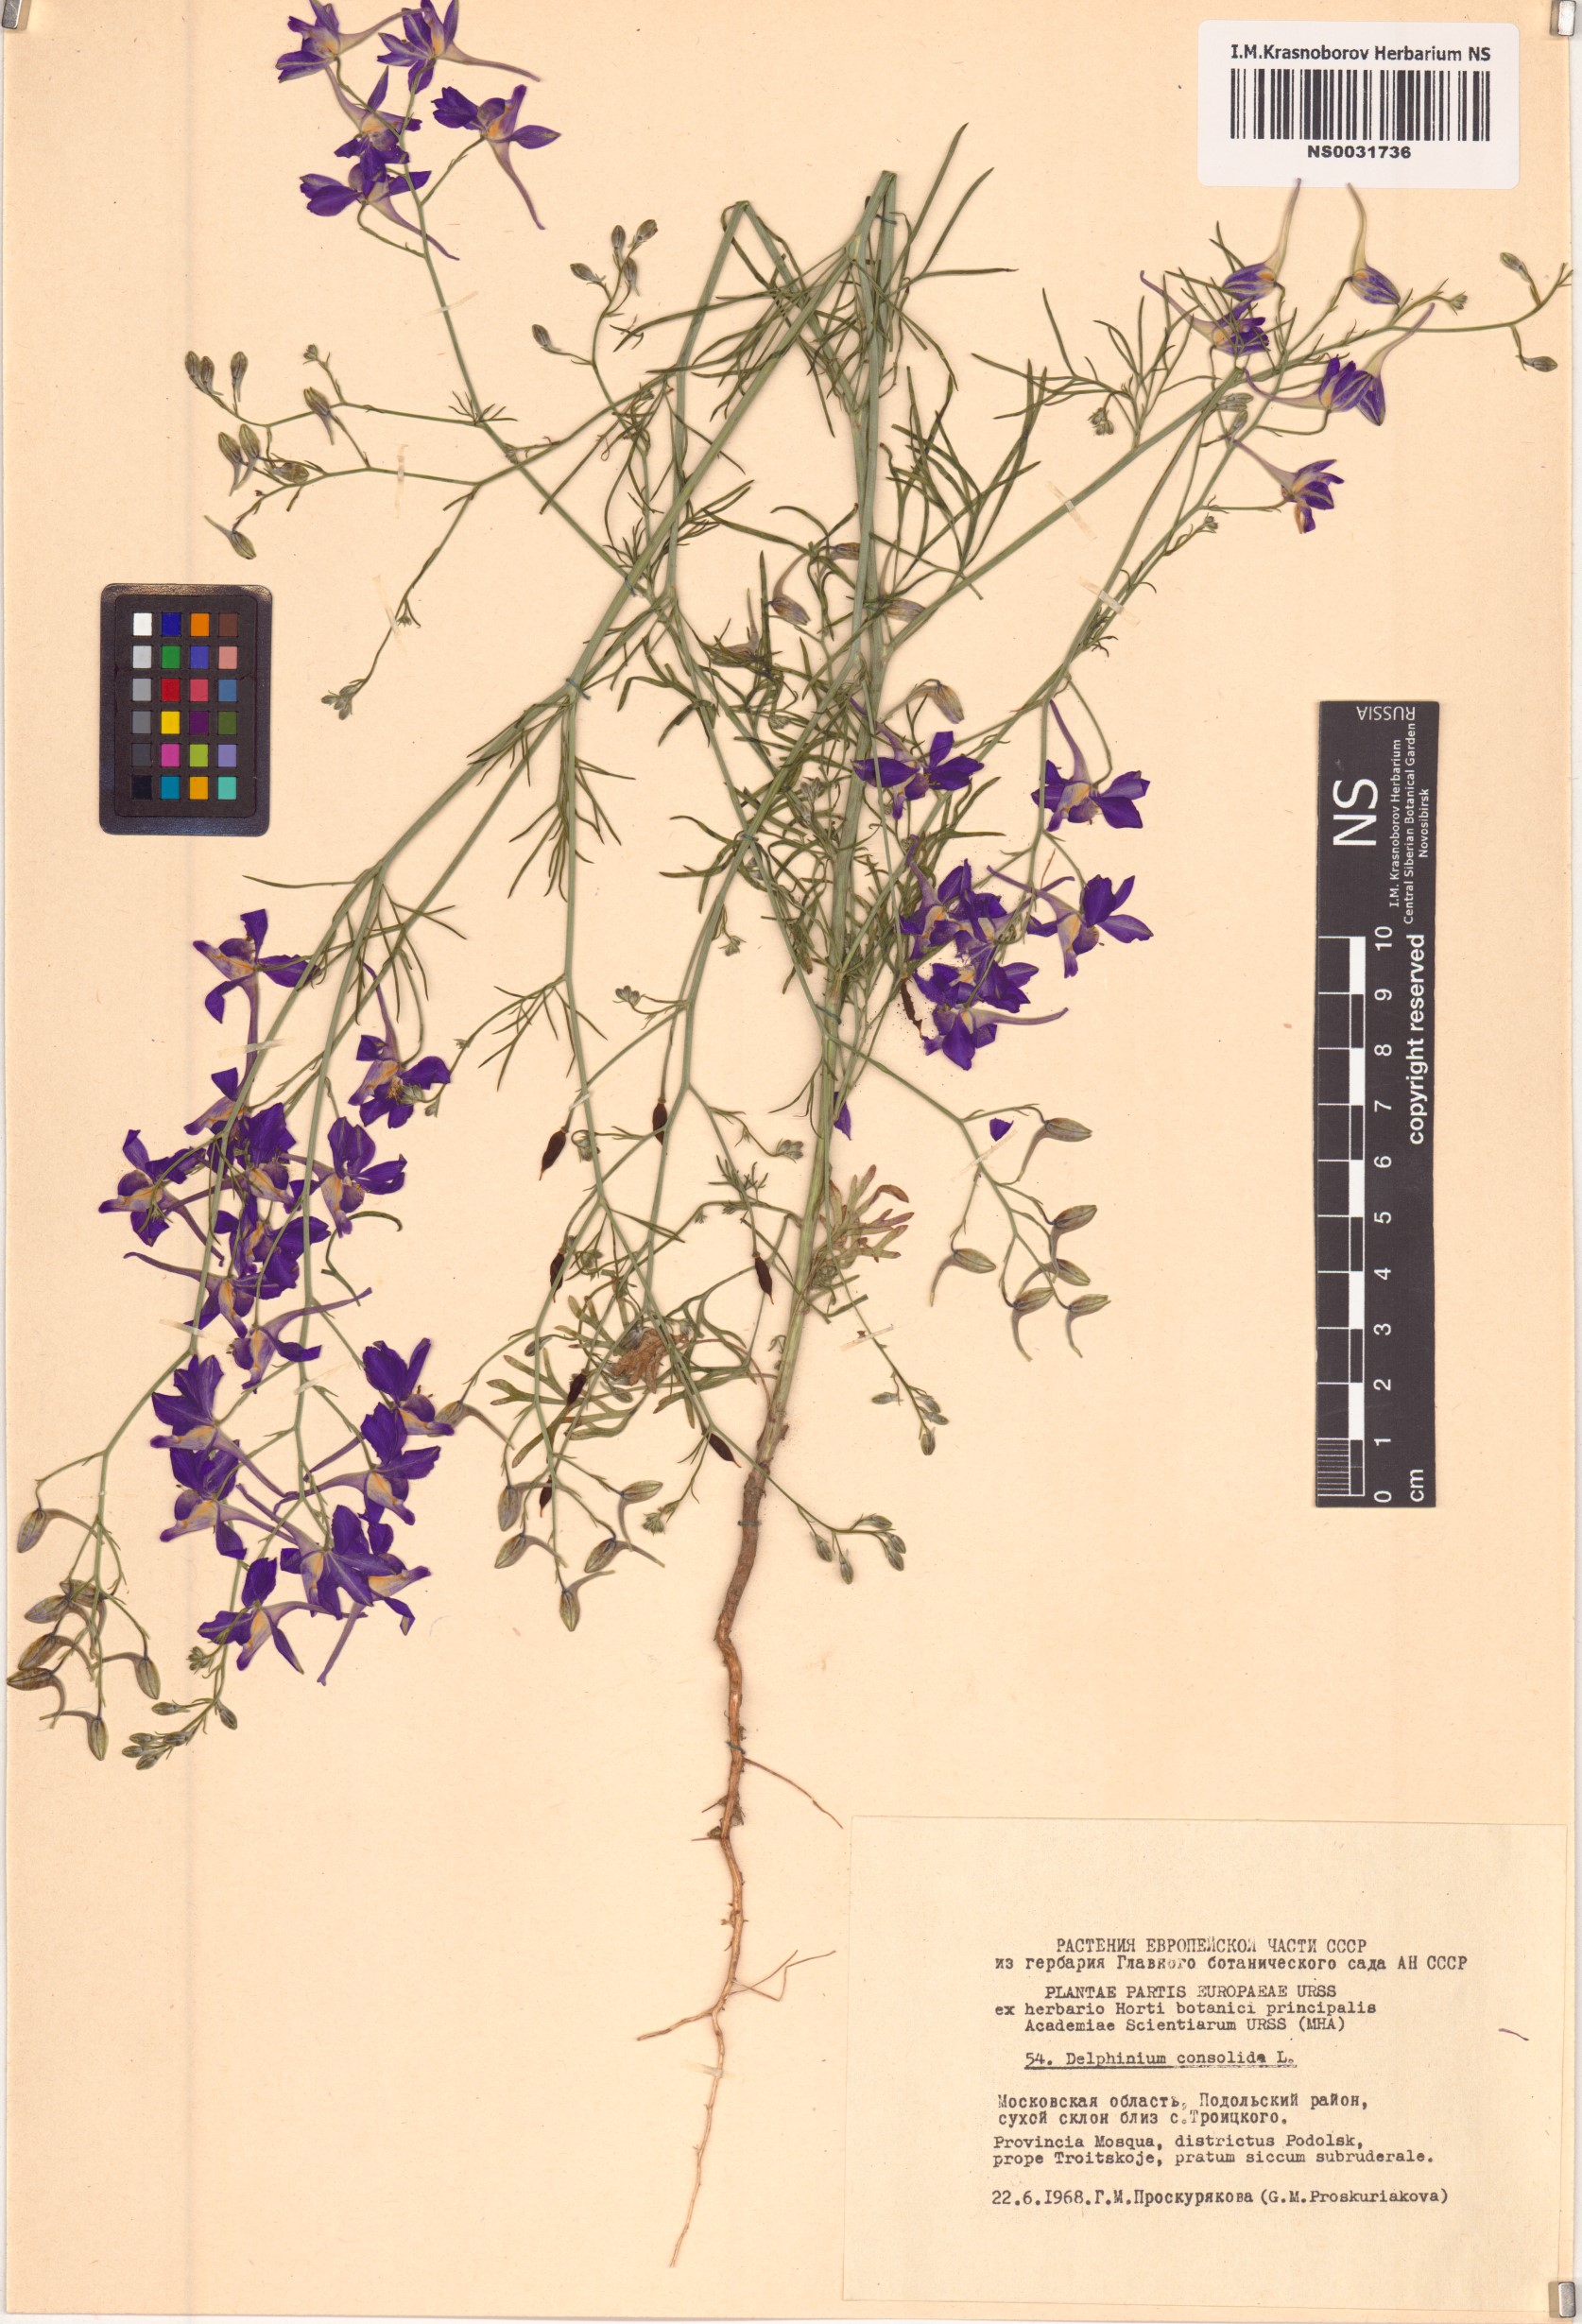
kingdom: Plantae
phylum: Tracheophyta
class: Magnoliopsida
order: Ranunculales
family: Ranunculaceae
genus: Delphinium
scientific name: Delphinium consolida
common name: Branching larkspur
